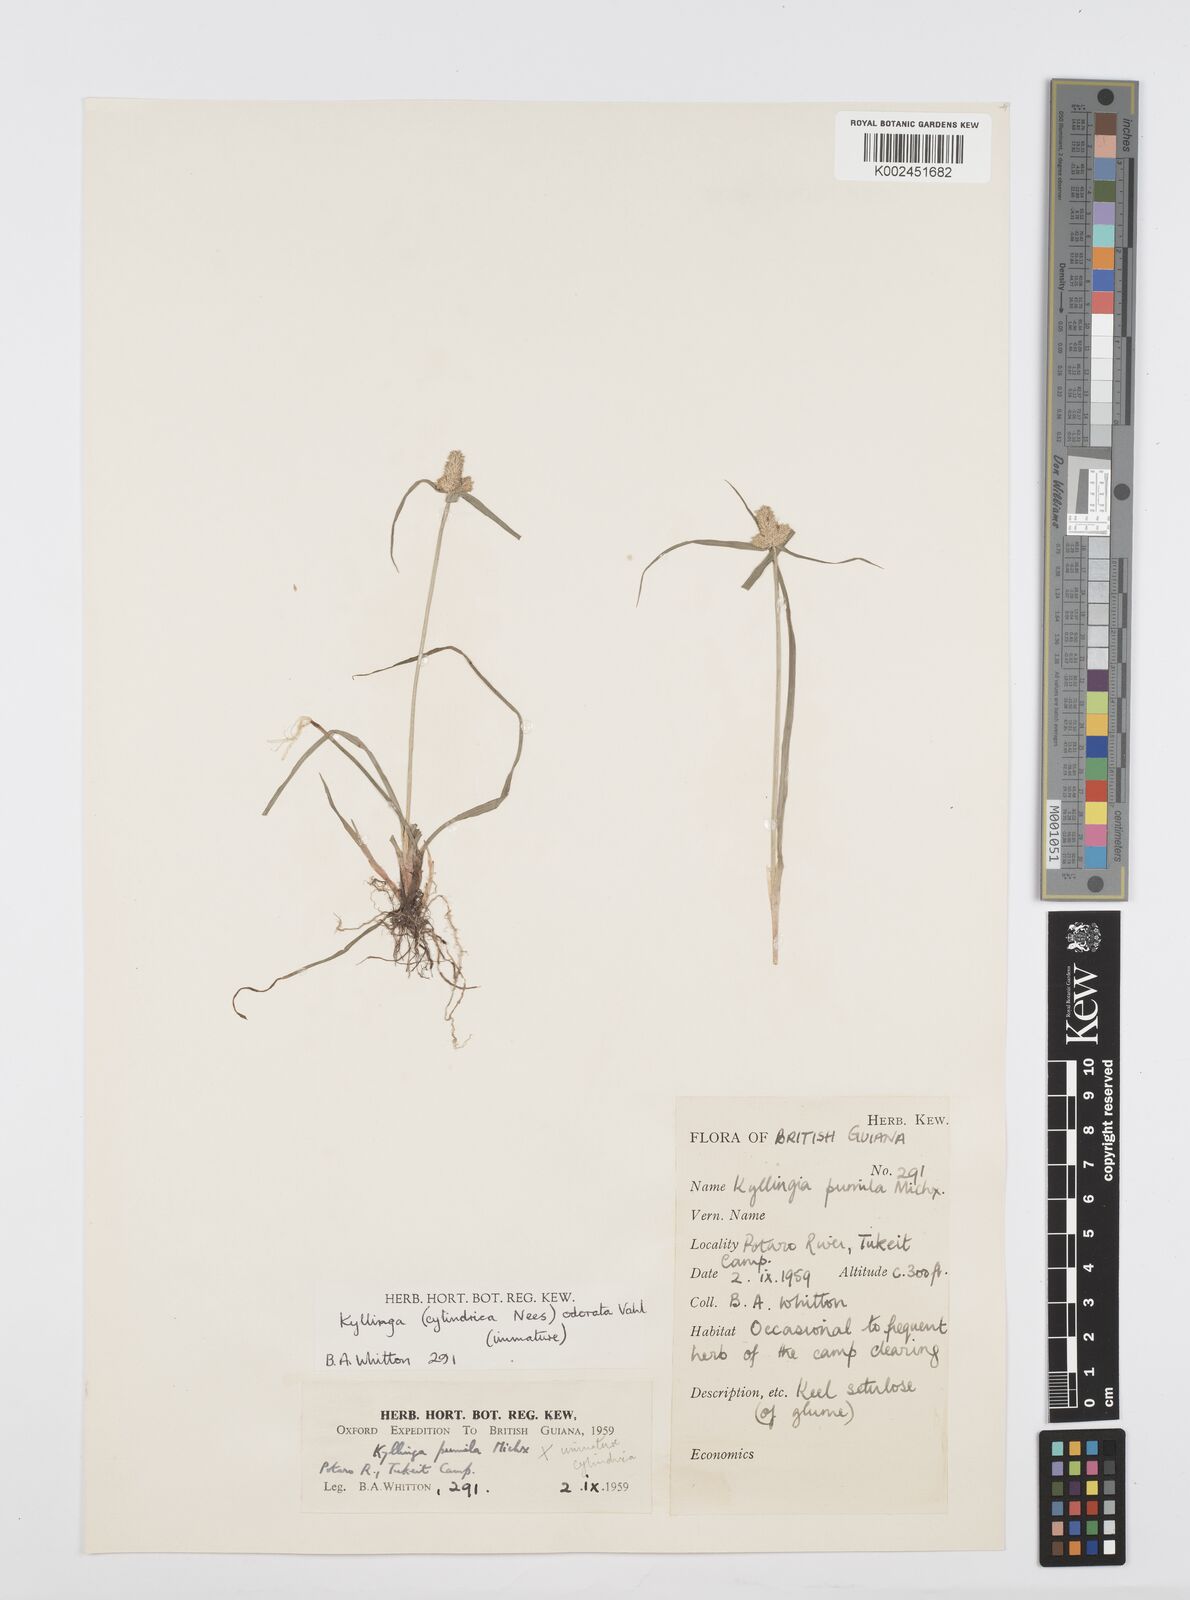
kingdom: Plantae
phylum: Tracheophyta
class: Liliopsida
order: Poales
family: Cyperaceae
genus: Cyperus
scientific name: Cyperus
